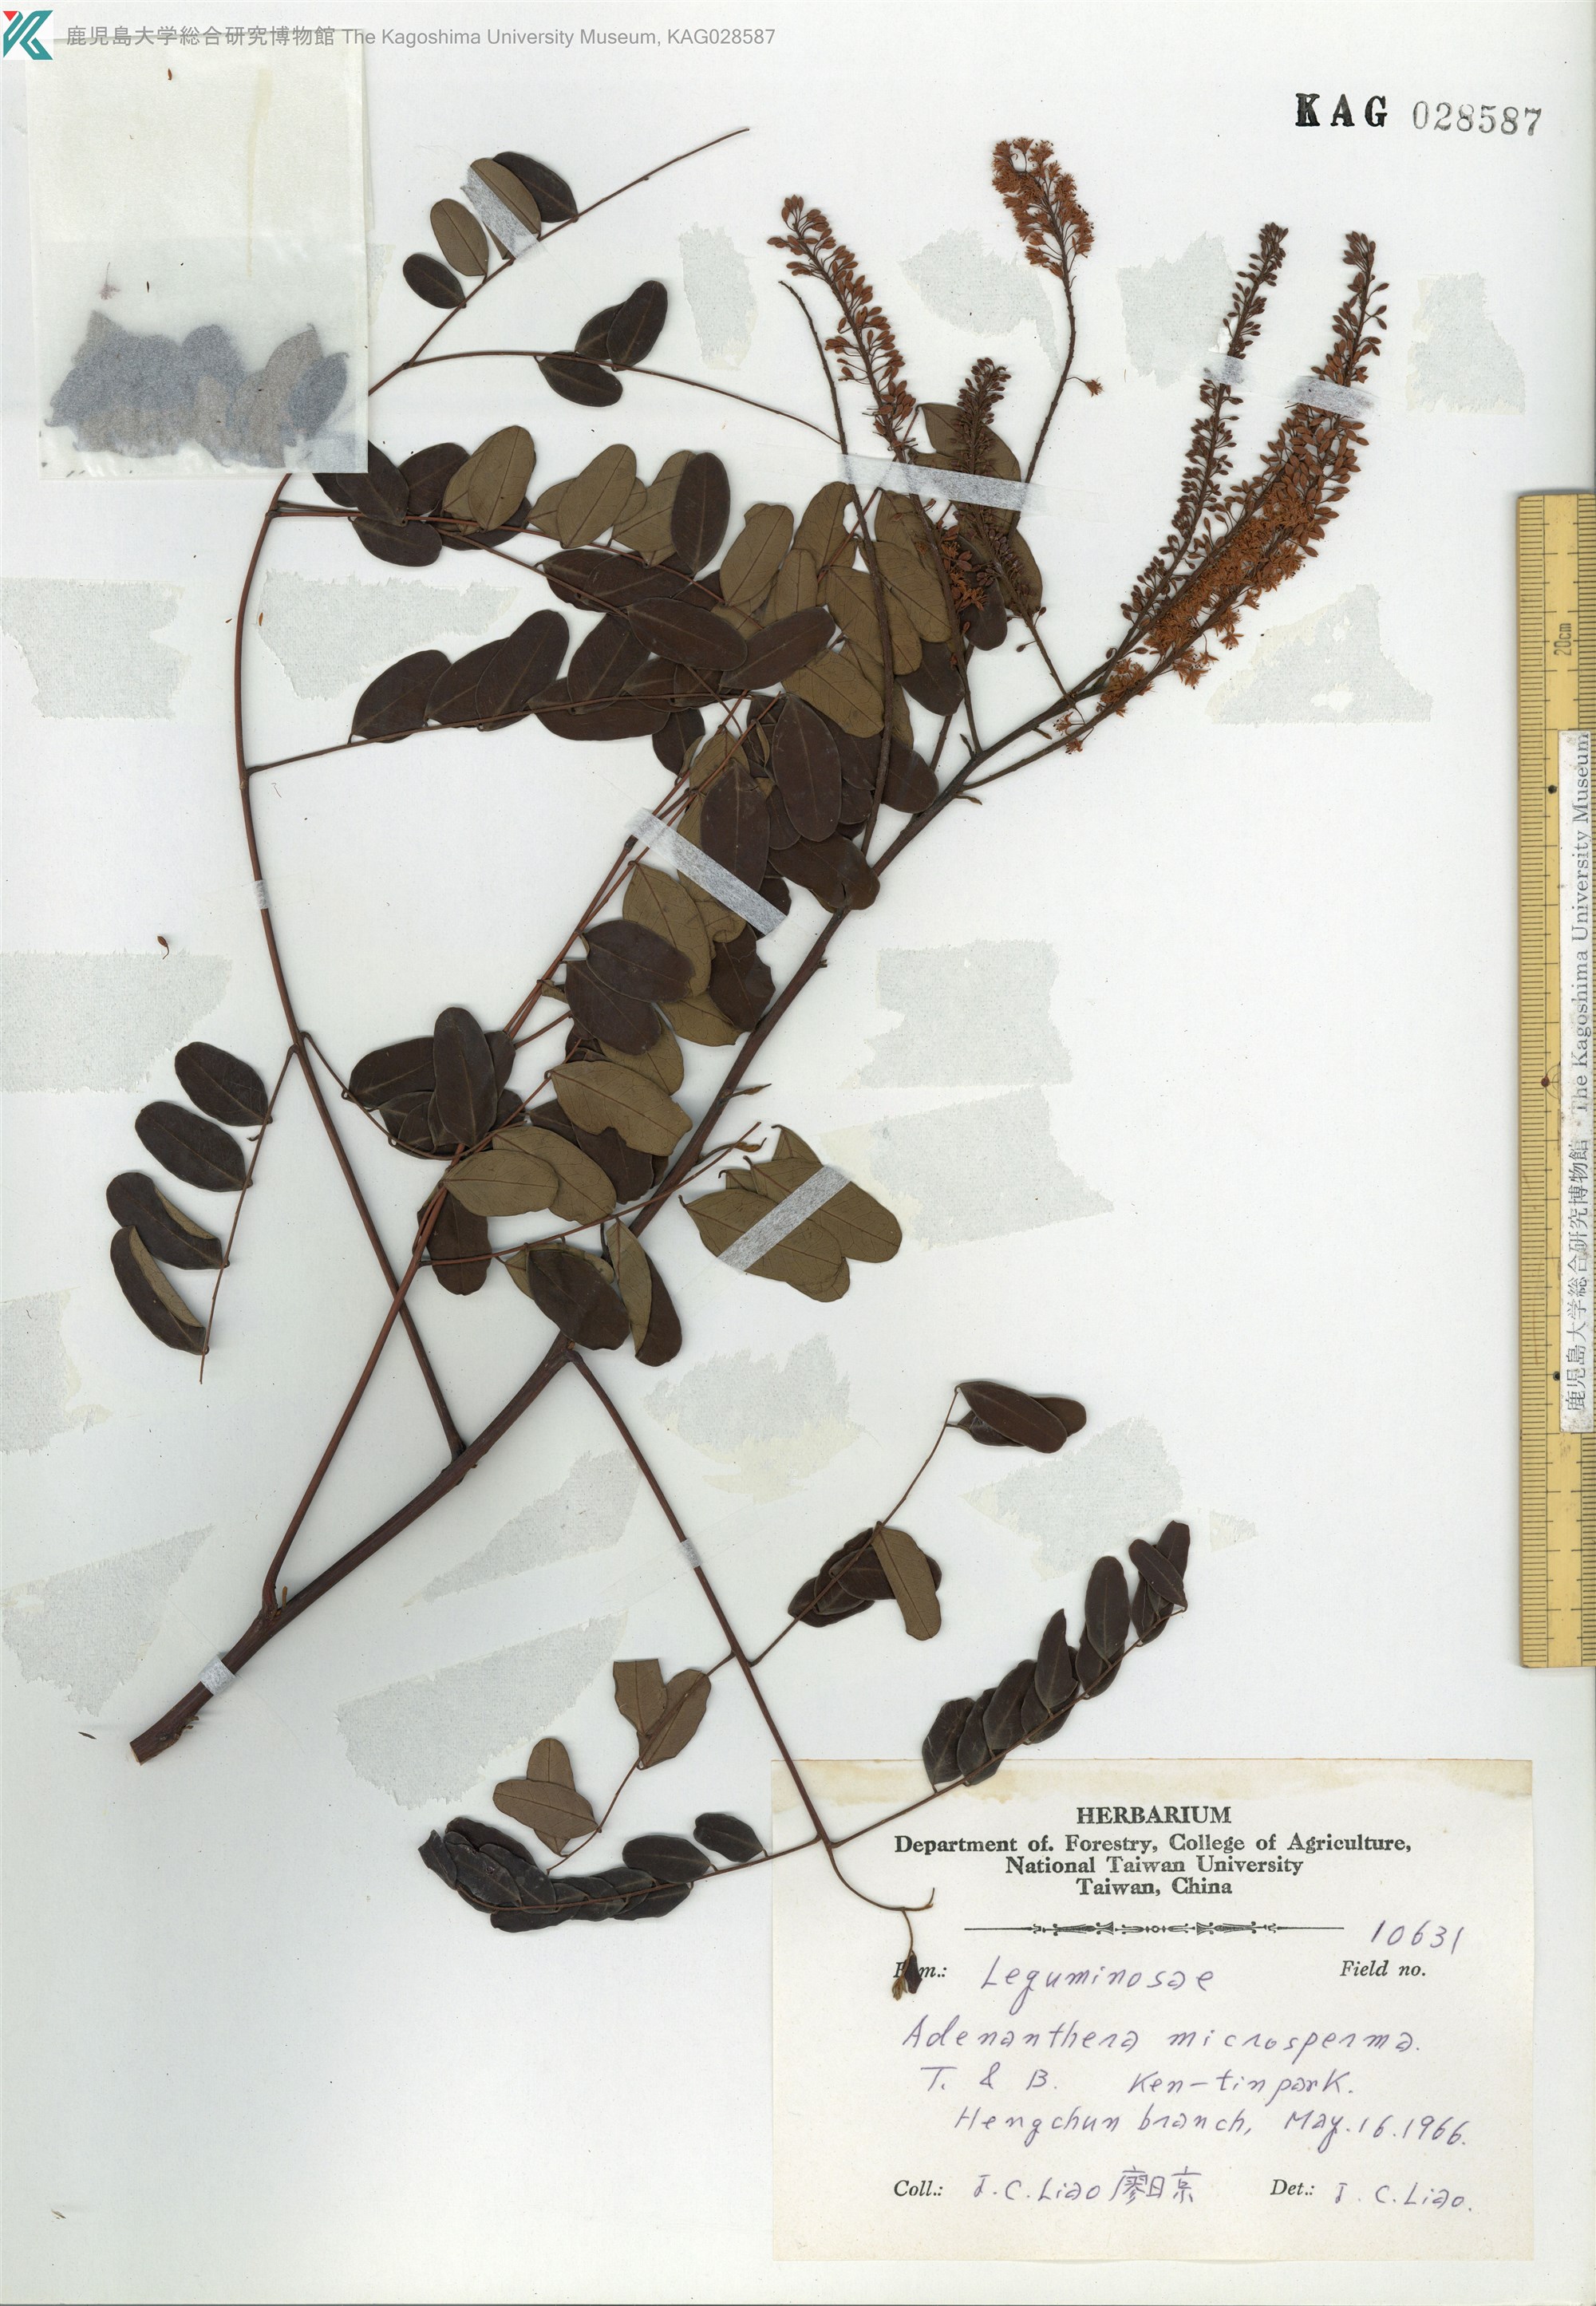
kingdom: Plantae
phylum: Tracheophyta
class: Magnoliopsida
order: Fabales
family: Fabaceae
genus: Leucaena
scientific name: Leucaena
